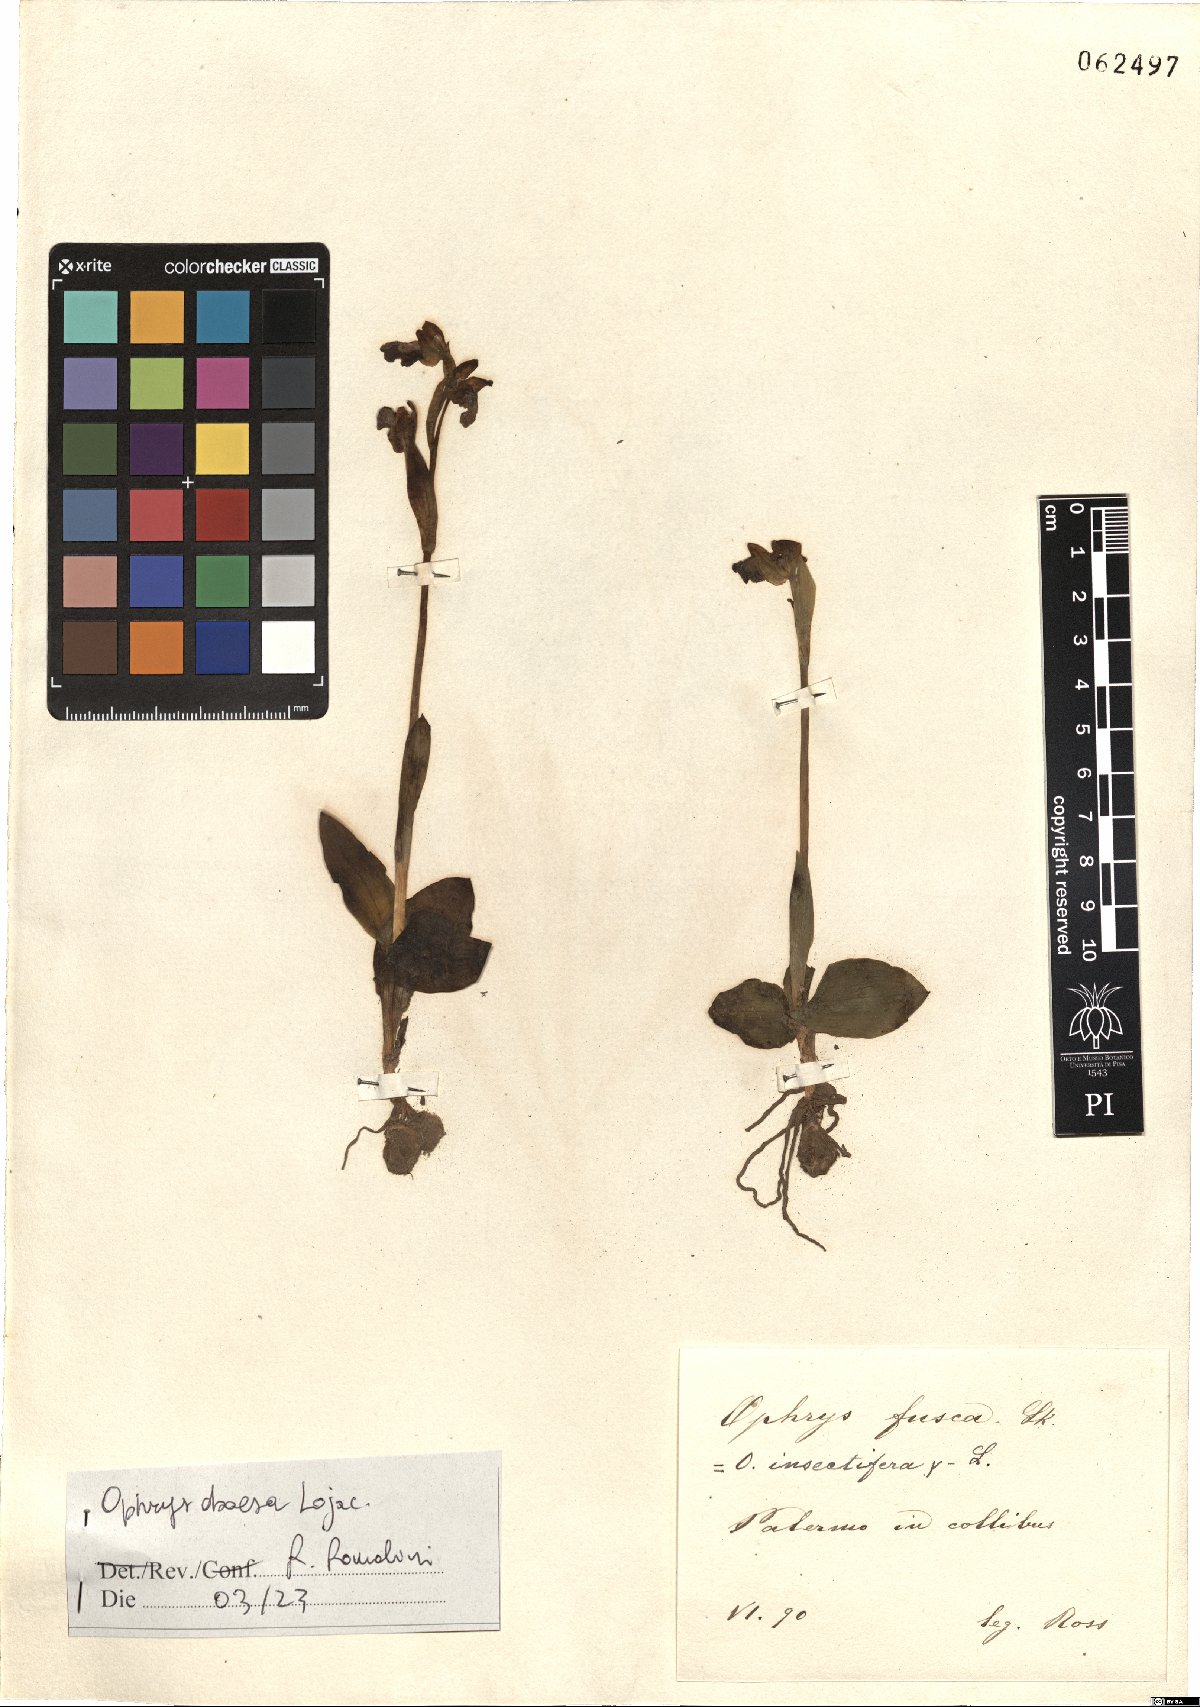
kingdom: Plantae
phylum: Tracheophyta
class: Liliopsida
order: Asparagales
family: Orchidaceae
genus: Ophrys
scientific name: Ophrys fusca
